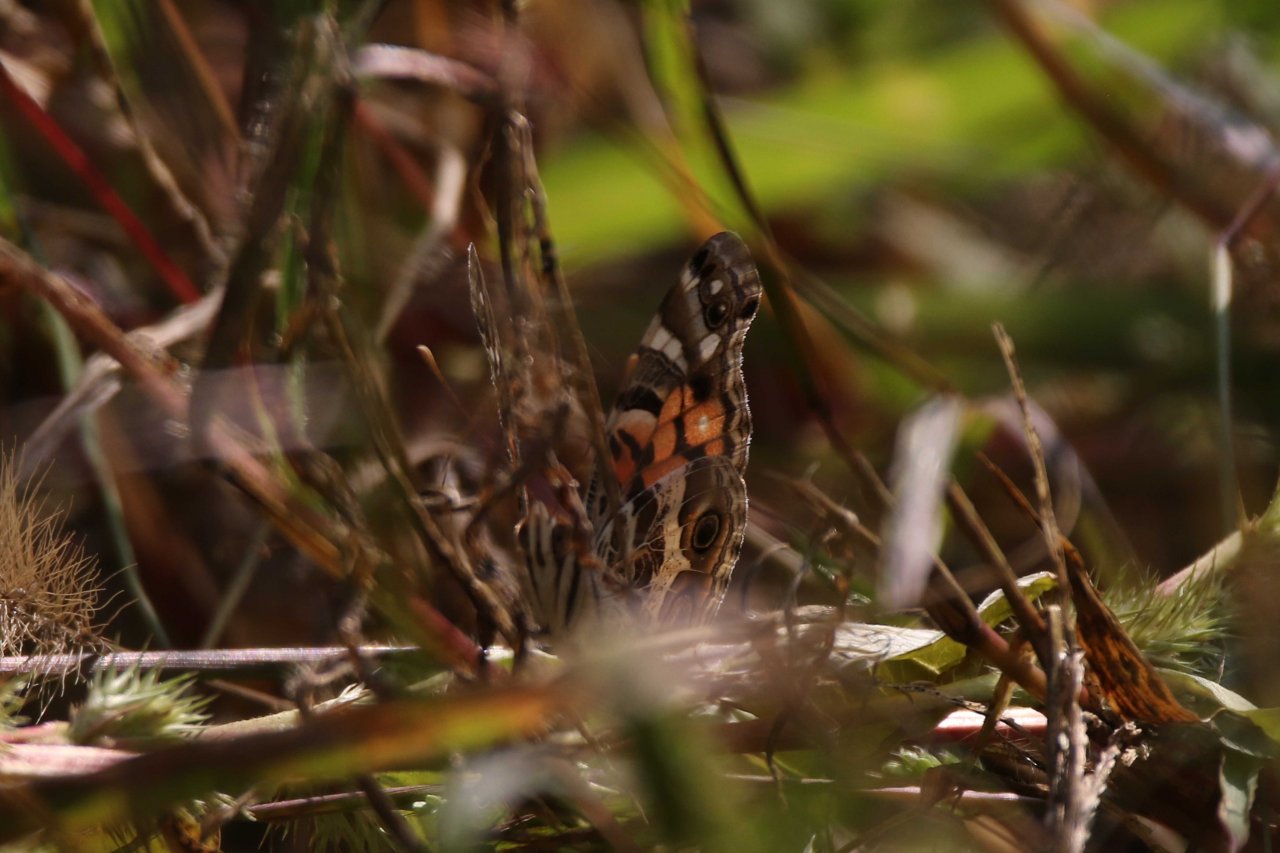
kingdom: Animalia
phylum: Arthropoda
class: Insecta
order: Lepidoptera
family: Nymphalidae
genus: Vanessa
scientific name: Vanessa virginiensis
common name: American Lady
